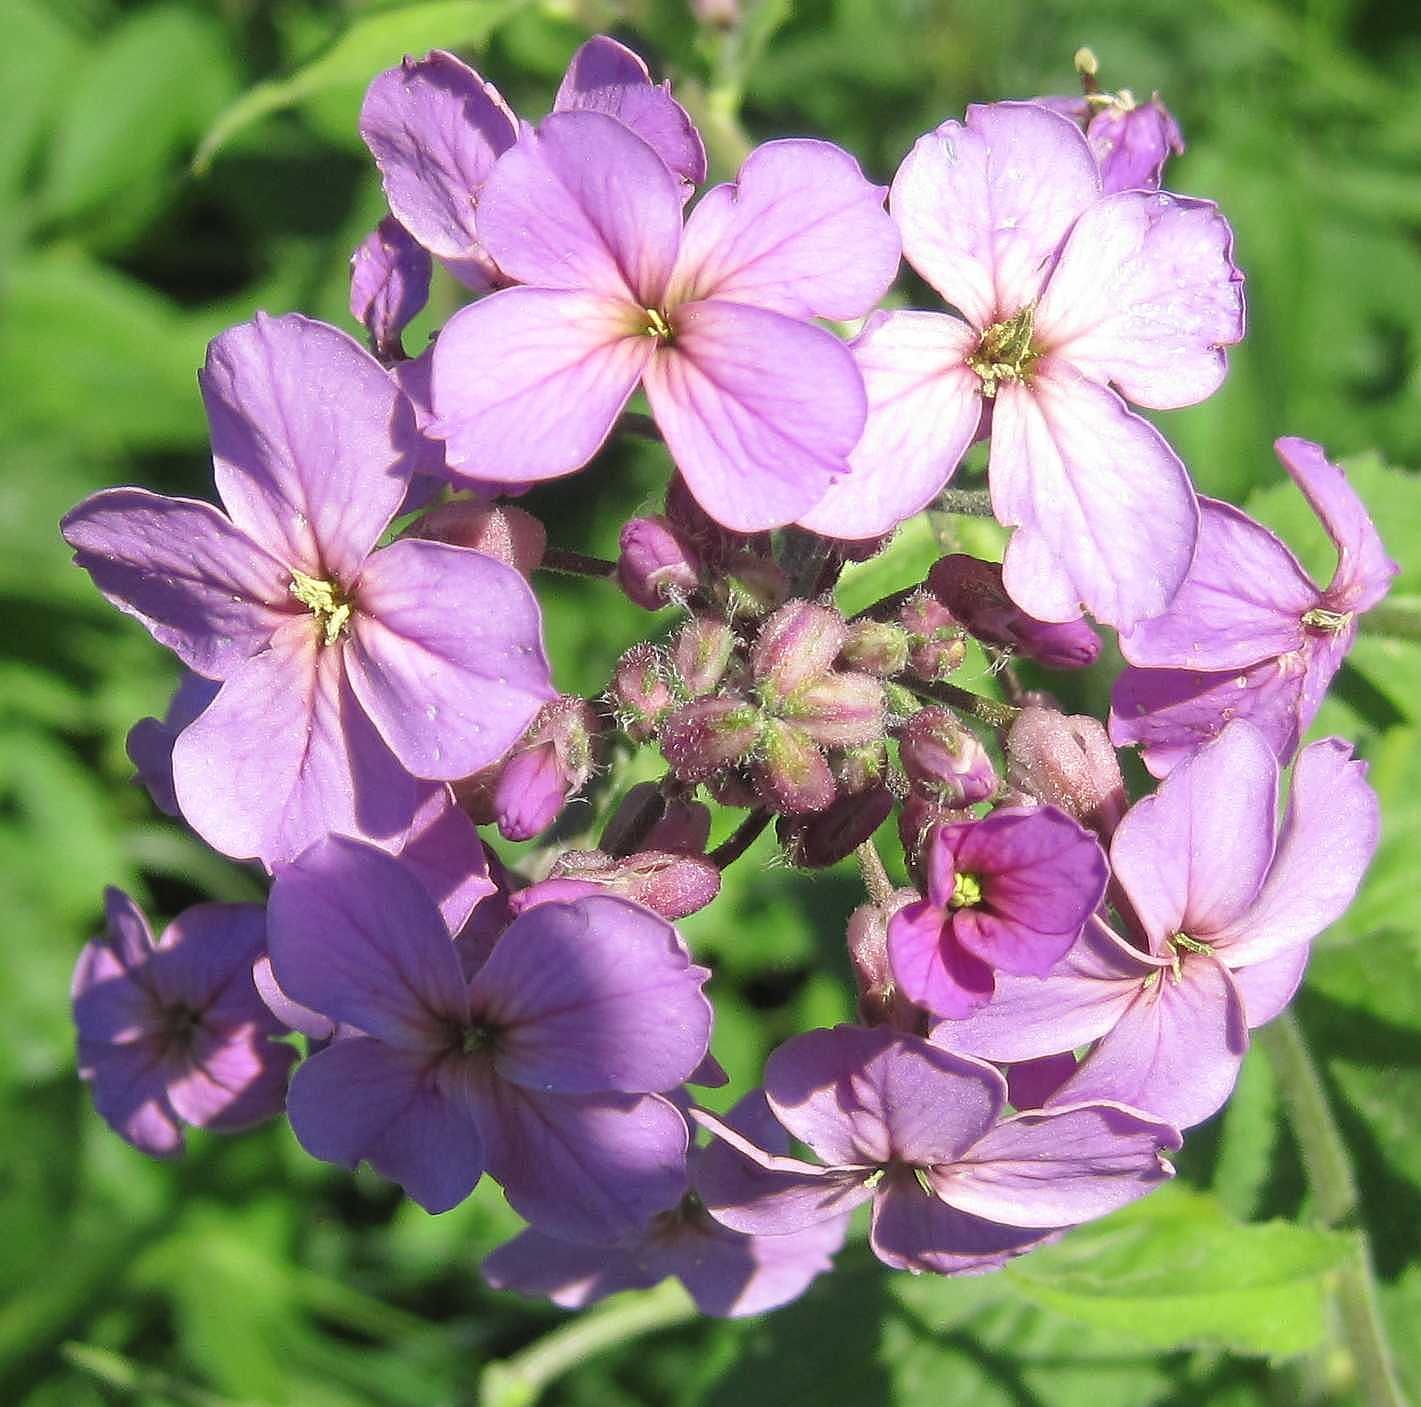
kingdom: Plantae
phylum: Tracheophyta
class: Magnoliopsida
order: Brassicales
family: Brassicaceae
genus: Hesperis
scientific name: Hesperis matronalis
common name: Aftenstjerne
